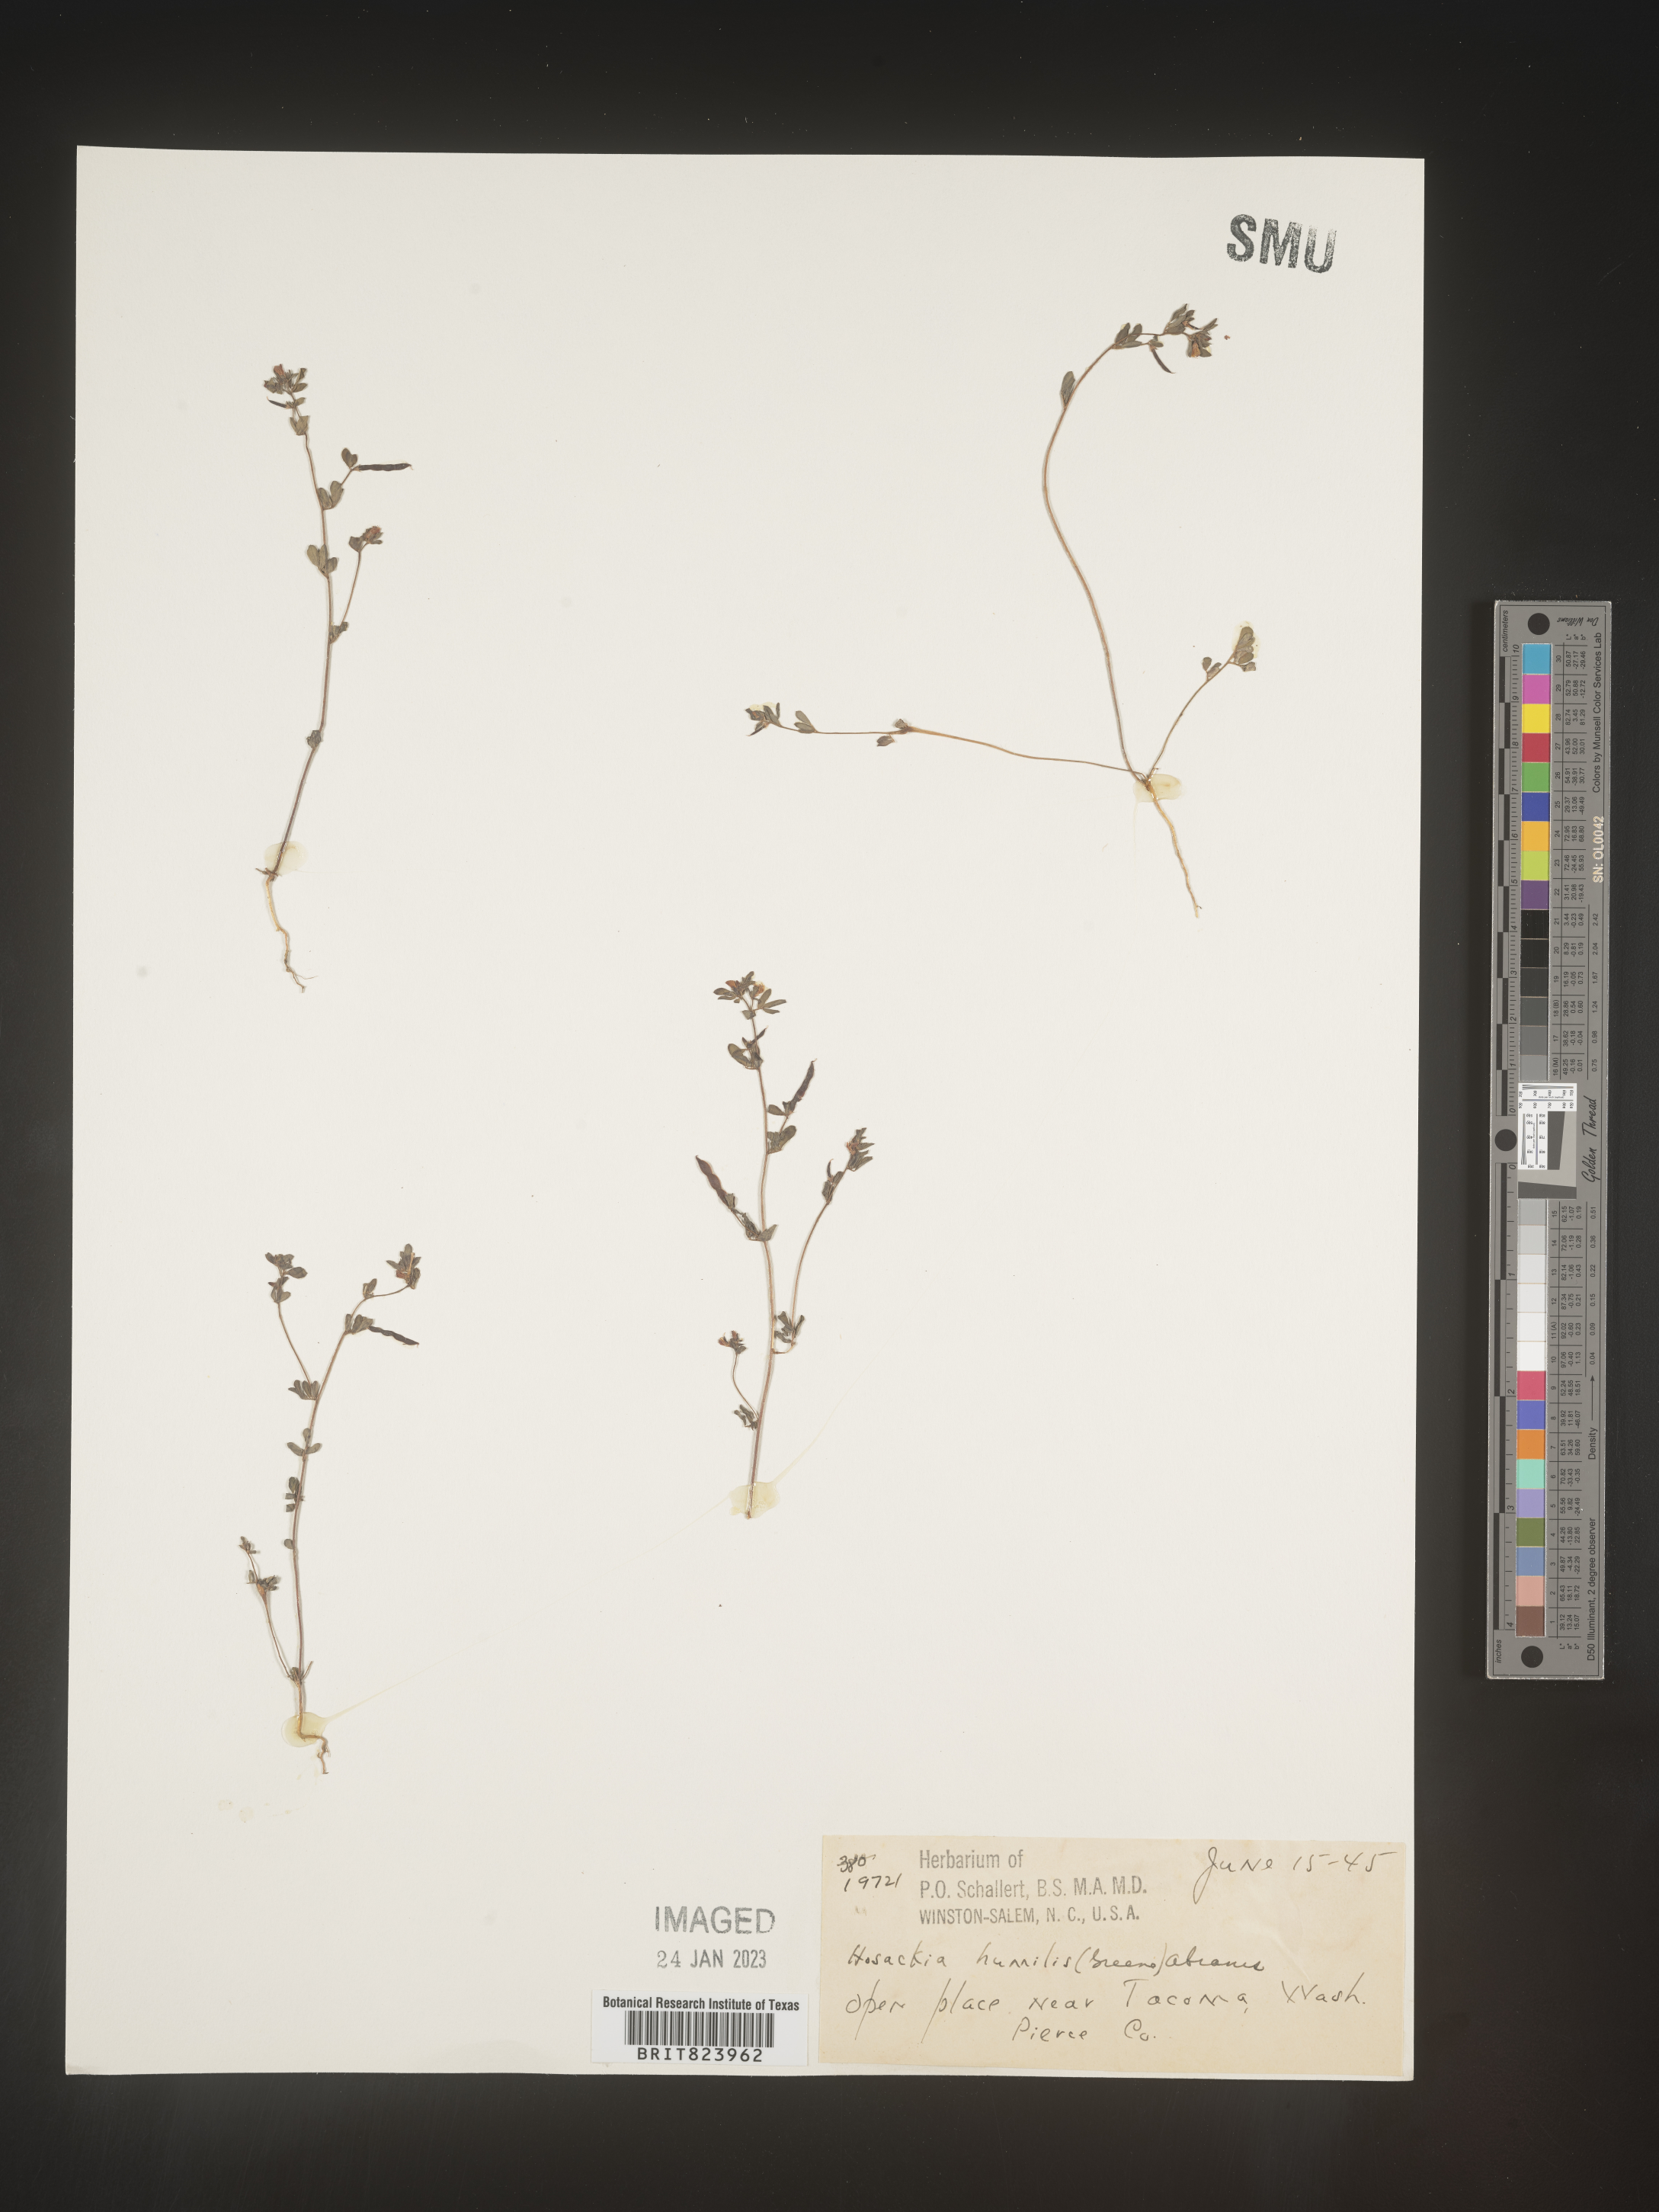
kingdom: Plantae
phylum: Tracheophyta
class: Magnoliopsida
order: Fabales
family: Fabaceae
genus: Lotus
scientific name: Lotus
